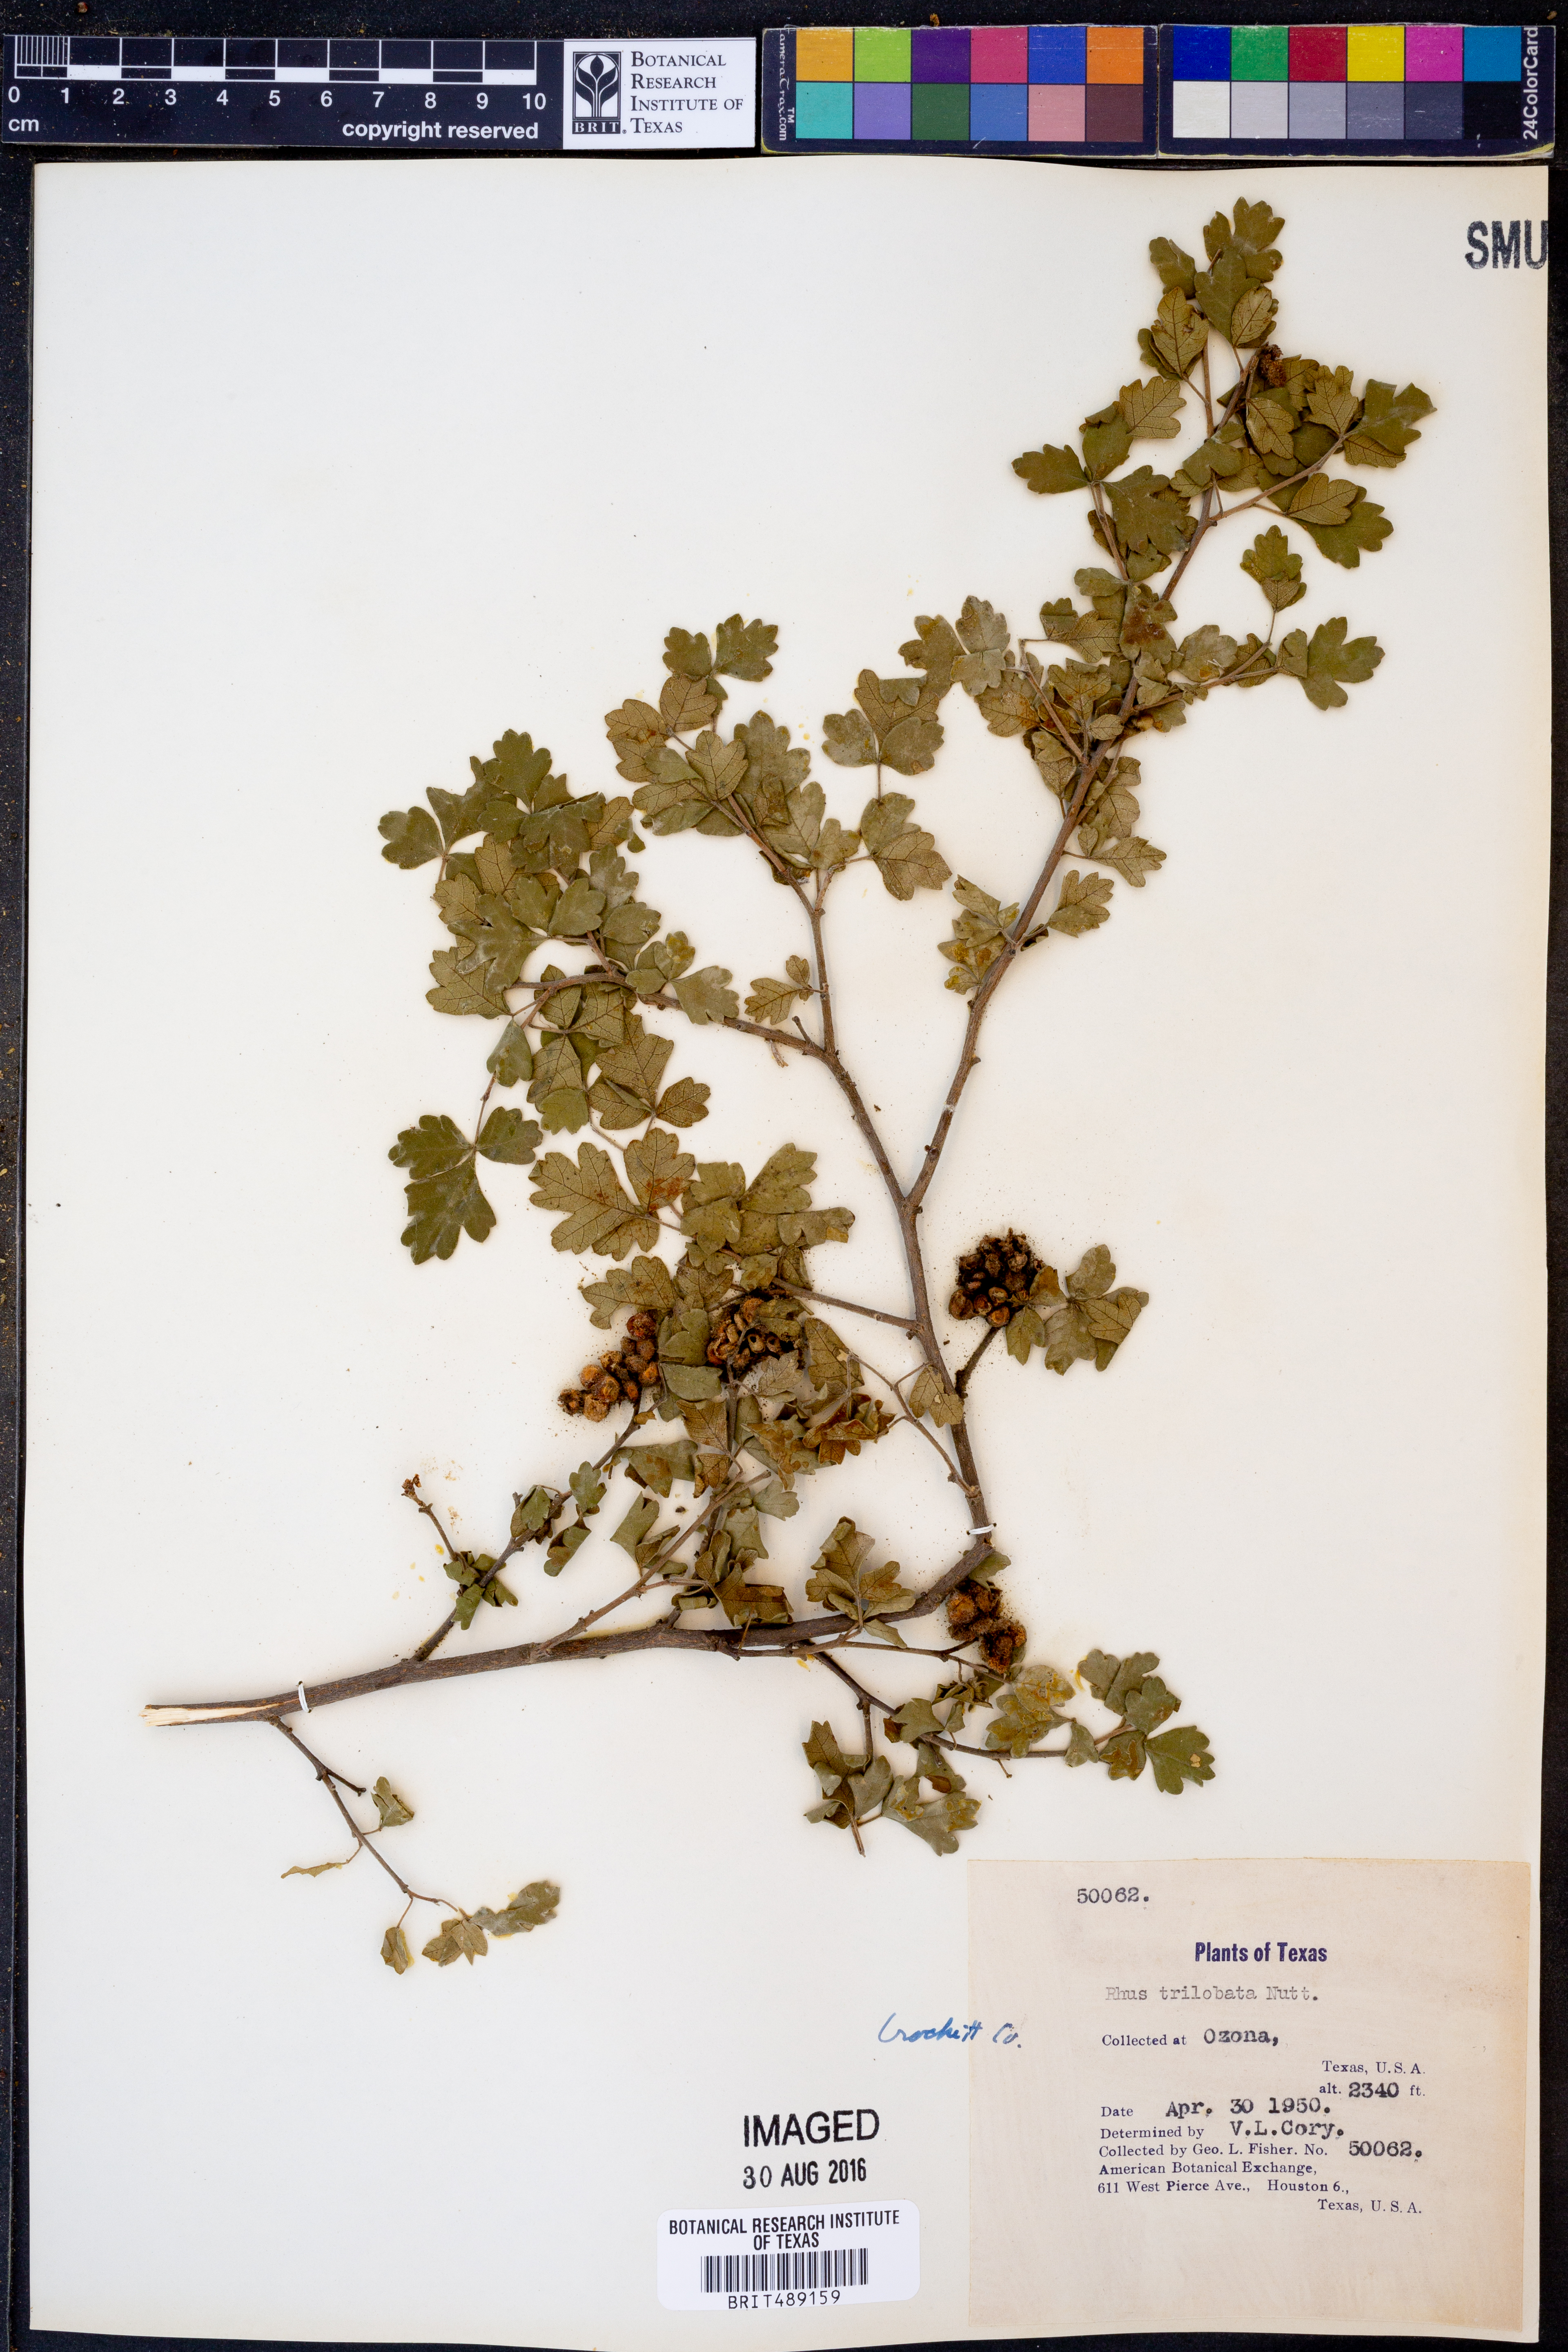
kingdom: Plantae
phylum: Tracheophyta
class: Magnoliopsida
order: Sapindales
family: Anacardiaceae
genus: Rhus
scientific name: Rhus trilobata
